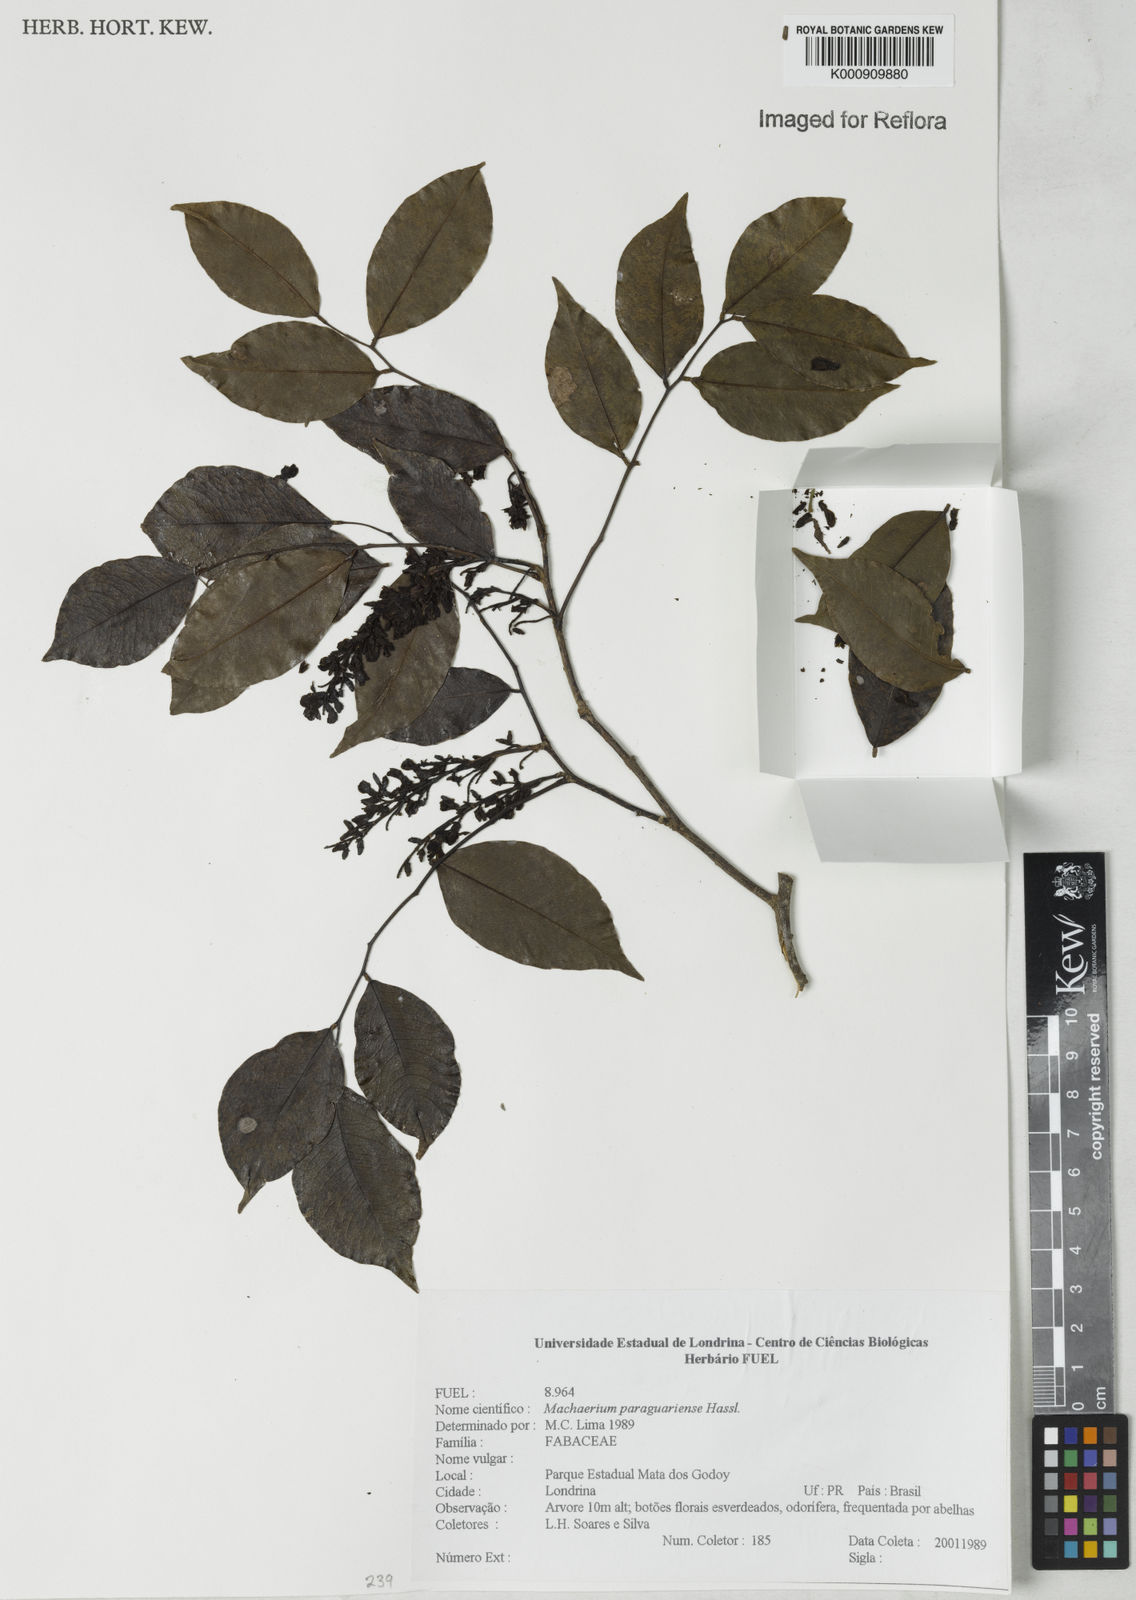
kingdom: Plantae
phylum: Tracheophyta
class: Magnoliopsida
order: Fabales
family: Fabaceae
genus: Machaerium
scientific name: Machaerium oblongifolium
